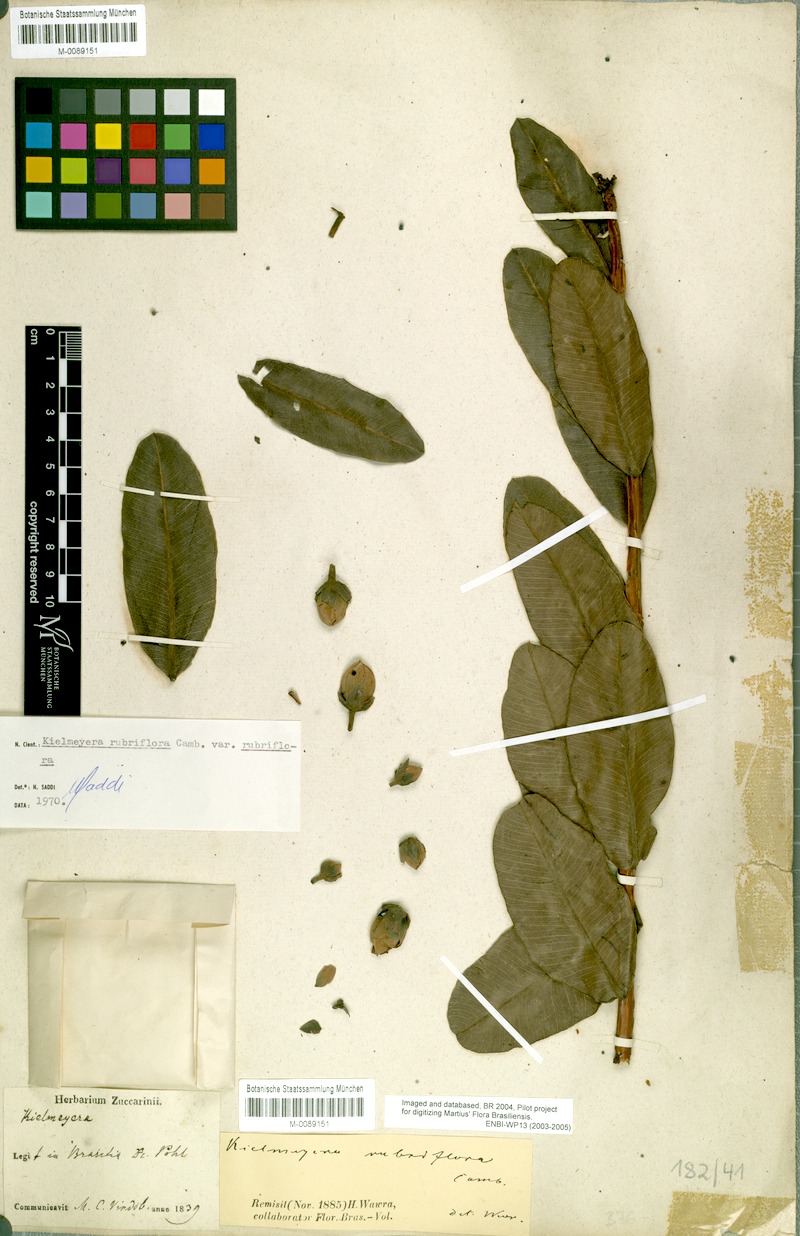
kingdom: Plantae
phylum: Tracheophyta
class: Magnoliopsida
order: Malpighiales
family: Calophyllaceae
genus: Kielmeyera
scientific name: Kielmeyera rubriflora
